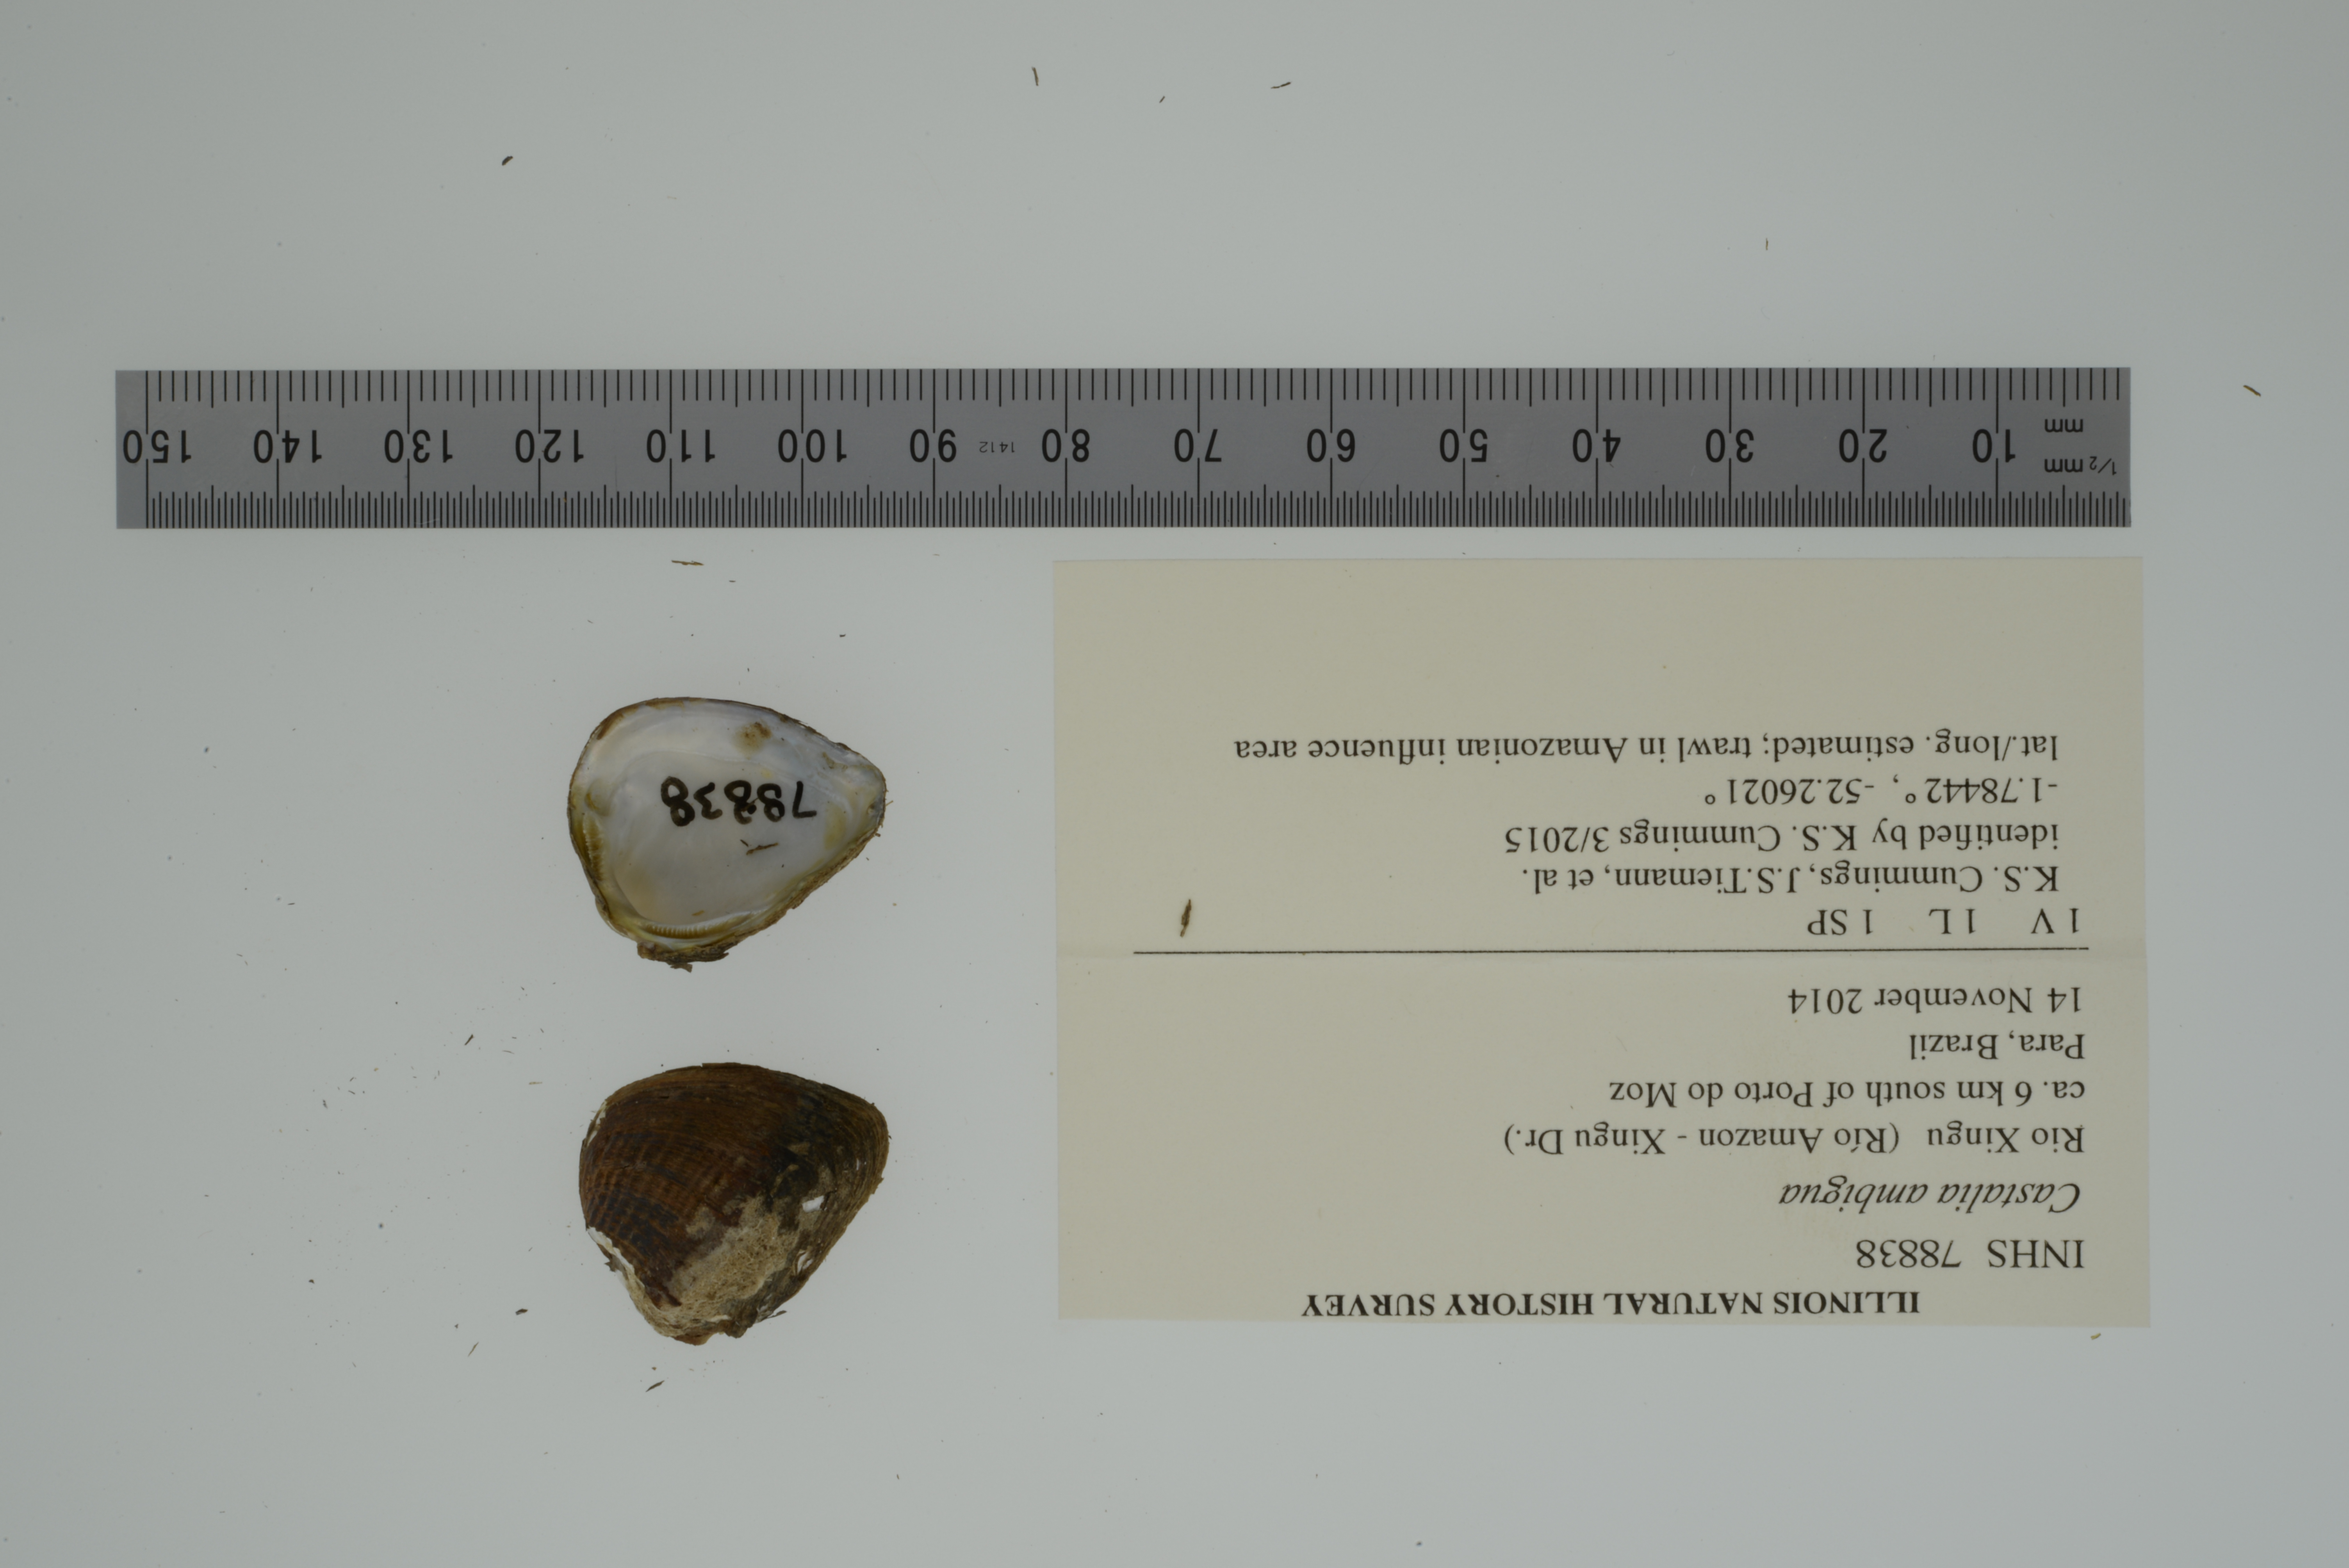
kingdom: Animalia
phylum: Mollusca
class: Bivalvia
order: Unionida
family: Hyriidae
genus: Castalia
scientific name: Castalia ambigua
